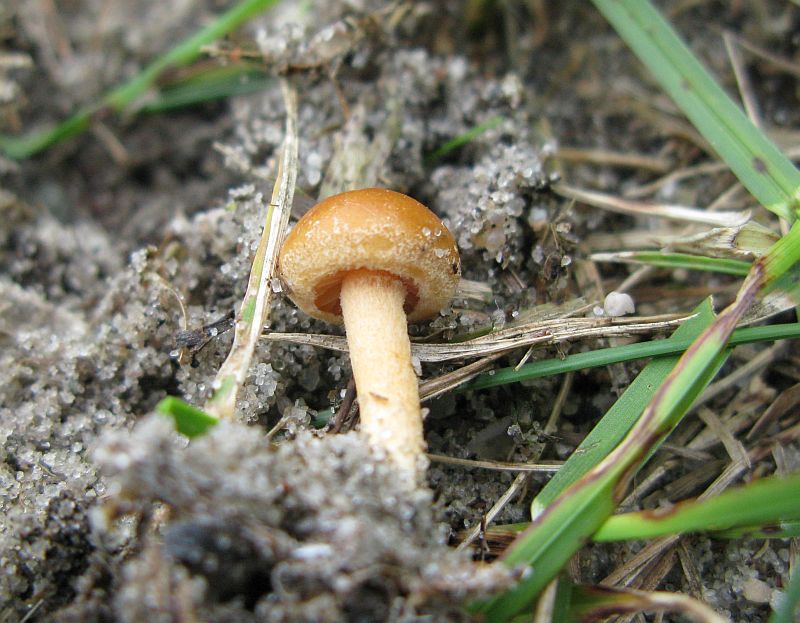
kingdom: Fungi
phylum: Basidiomycota
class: Agaricomycetes
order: Agaricales
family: Strophariaceae
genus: Agrocybe
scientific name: Agrocybe pediades
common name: almindelig agerhat
